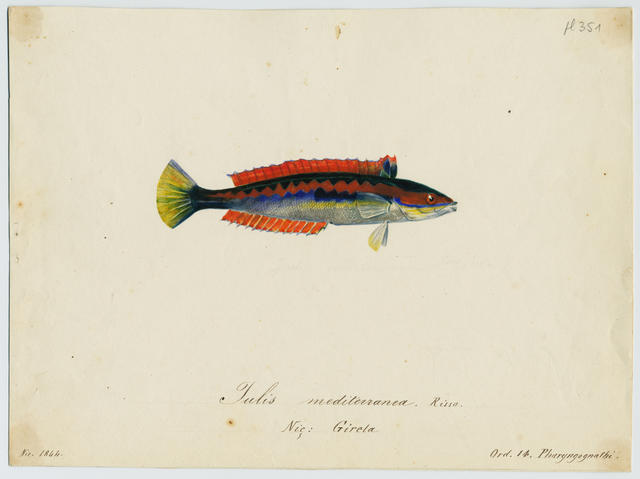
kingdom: Animalia
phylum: Chordata
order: Perciformes
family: Labridae
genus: Coris
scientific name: Coris julis
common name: Rainbow wrasse
